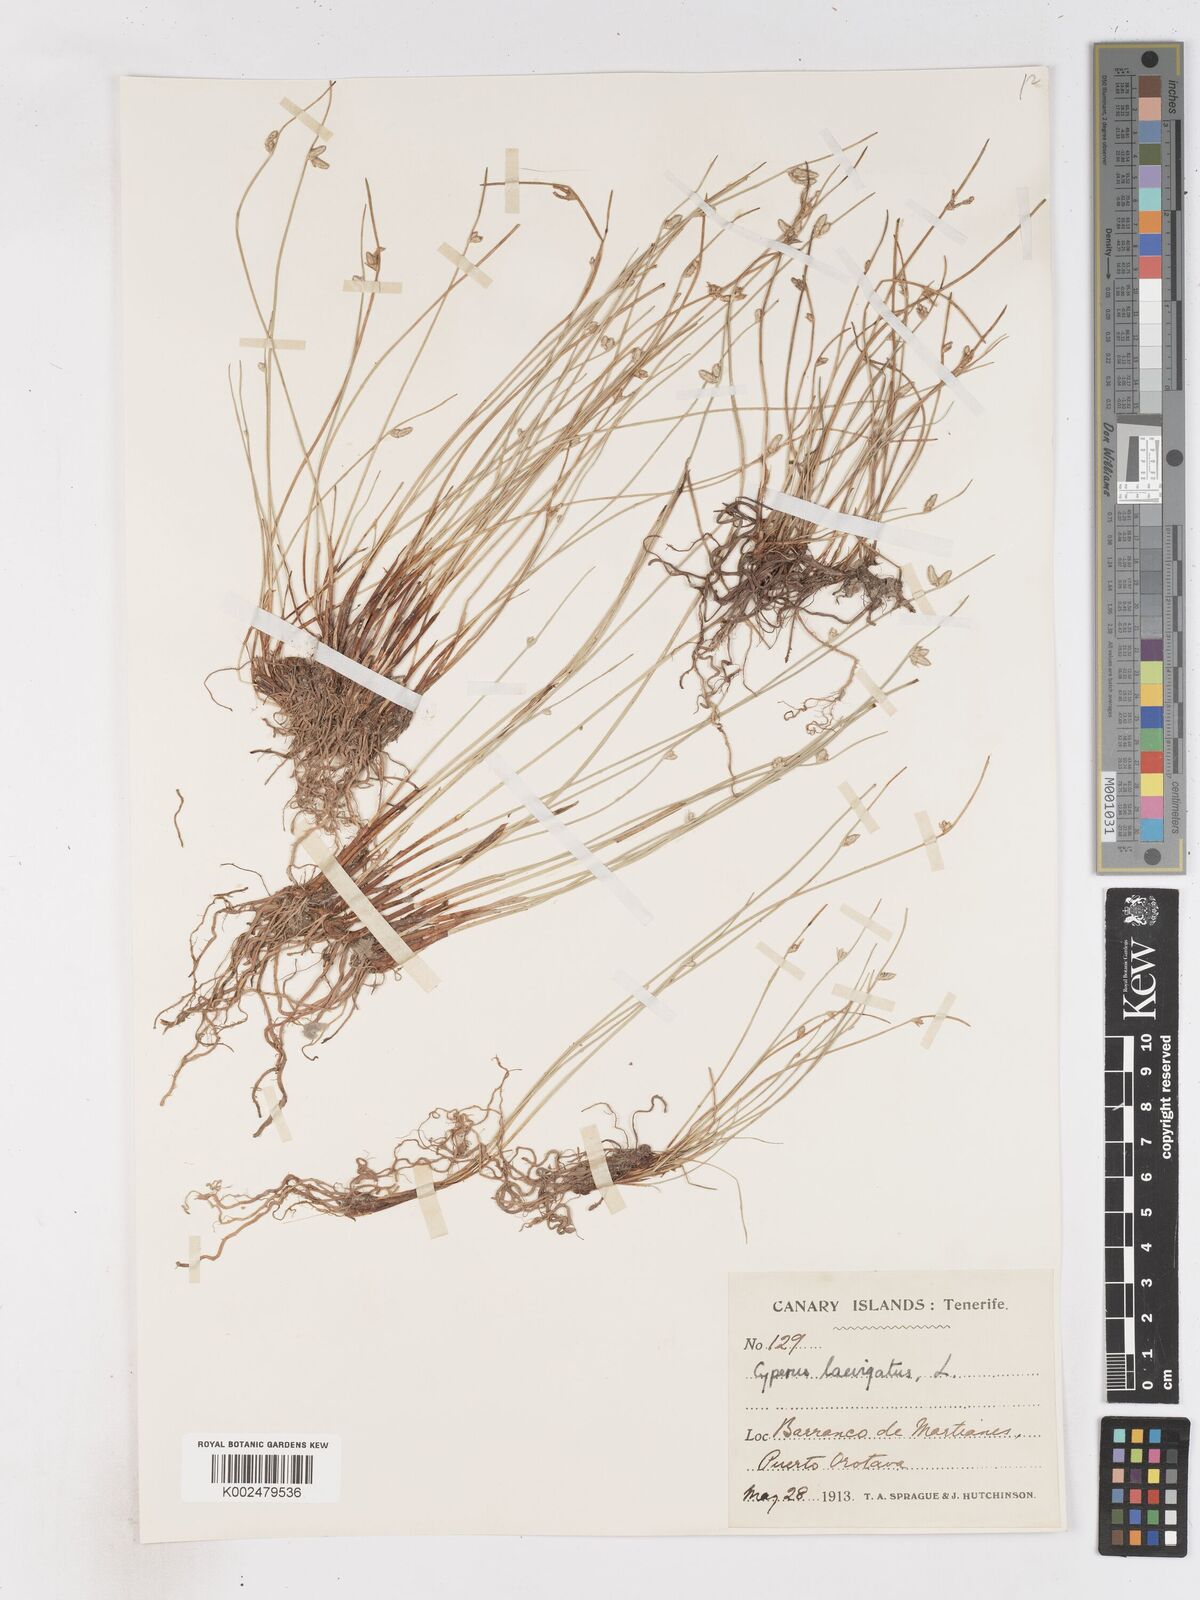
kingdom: Plantae
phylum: Tracheophyta
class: Liliopsida
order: Poales
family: Cyperaceae
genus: Cyperus
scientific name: Cyperus laevigatus
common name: Smooth flat sedge
